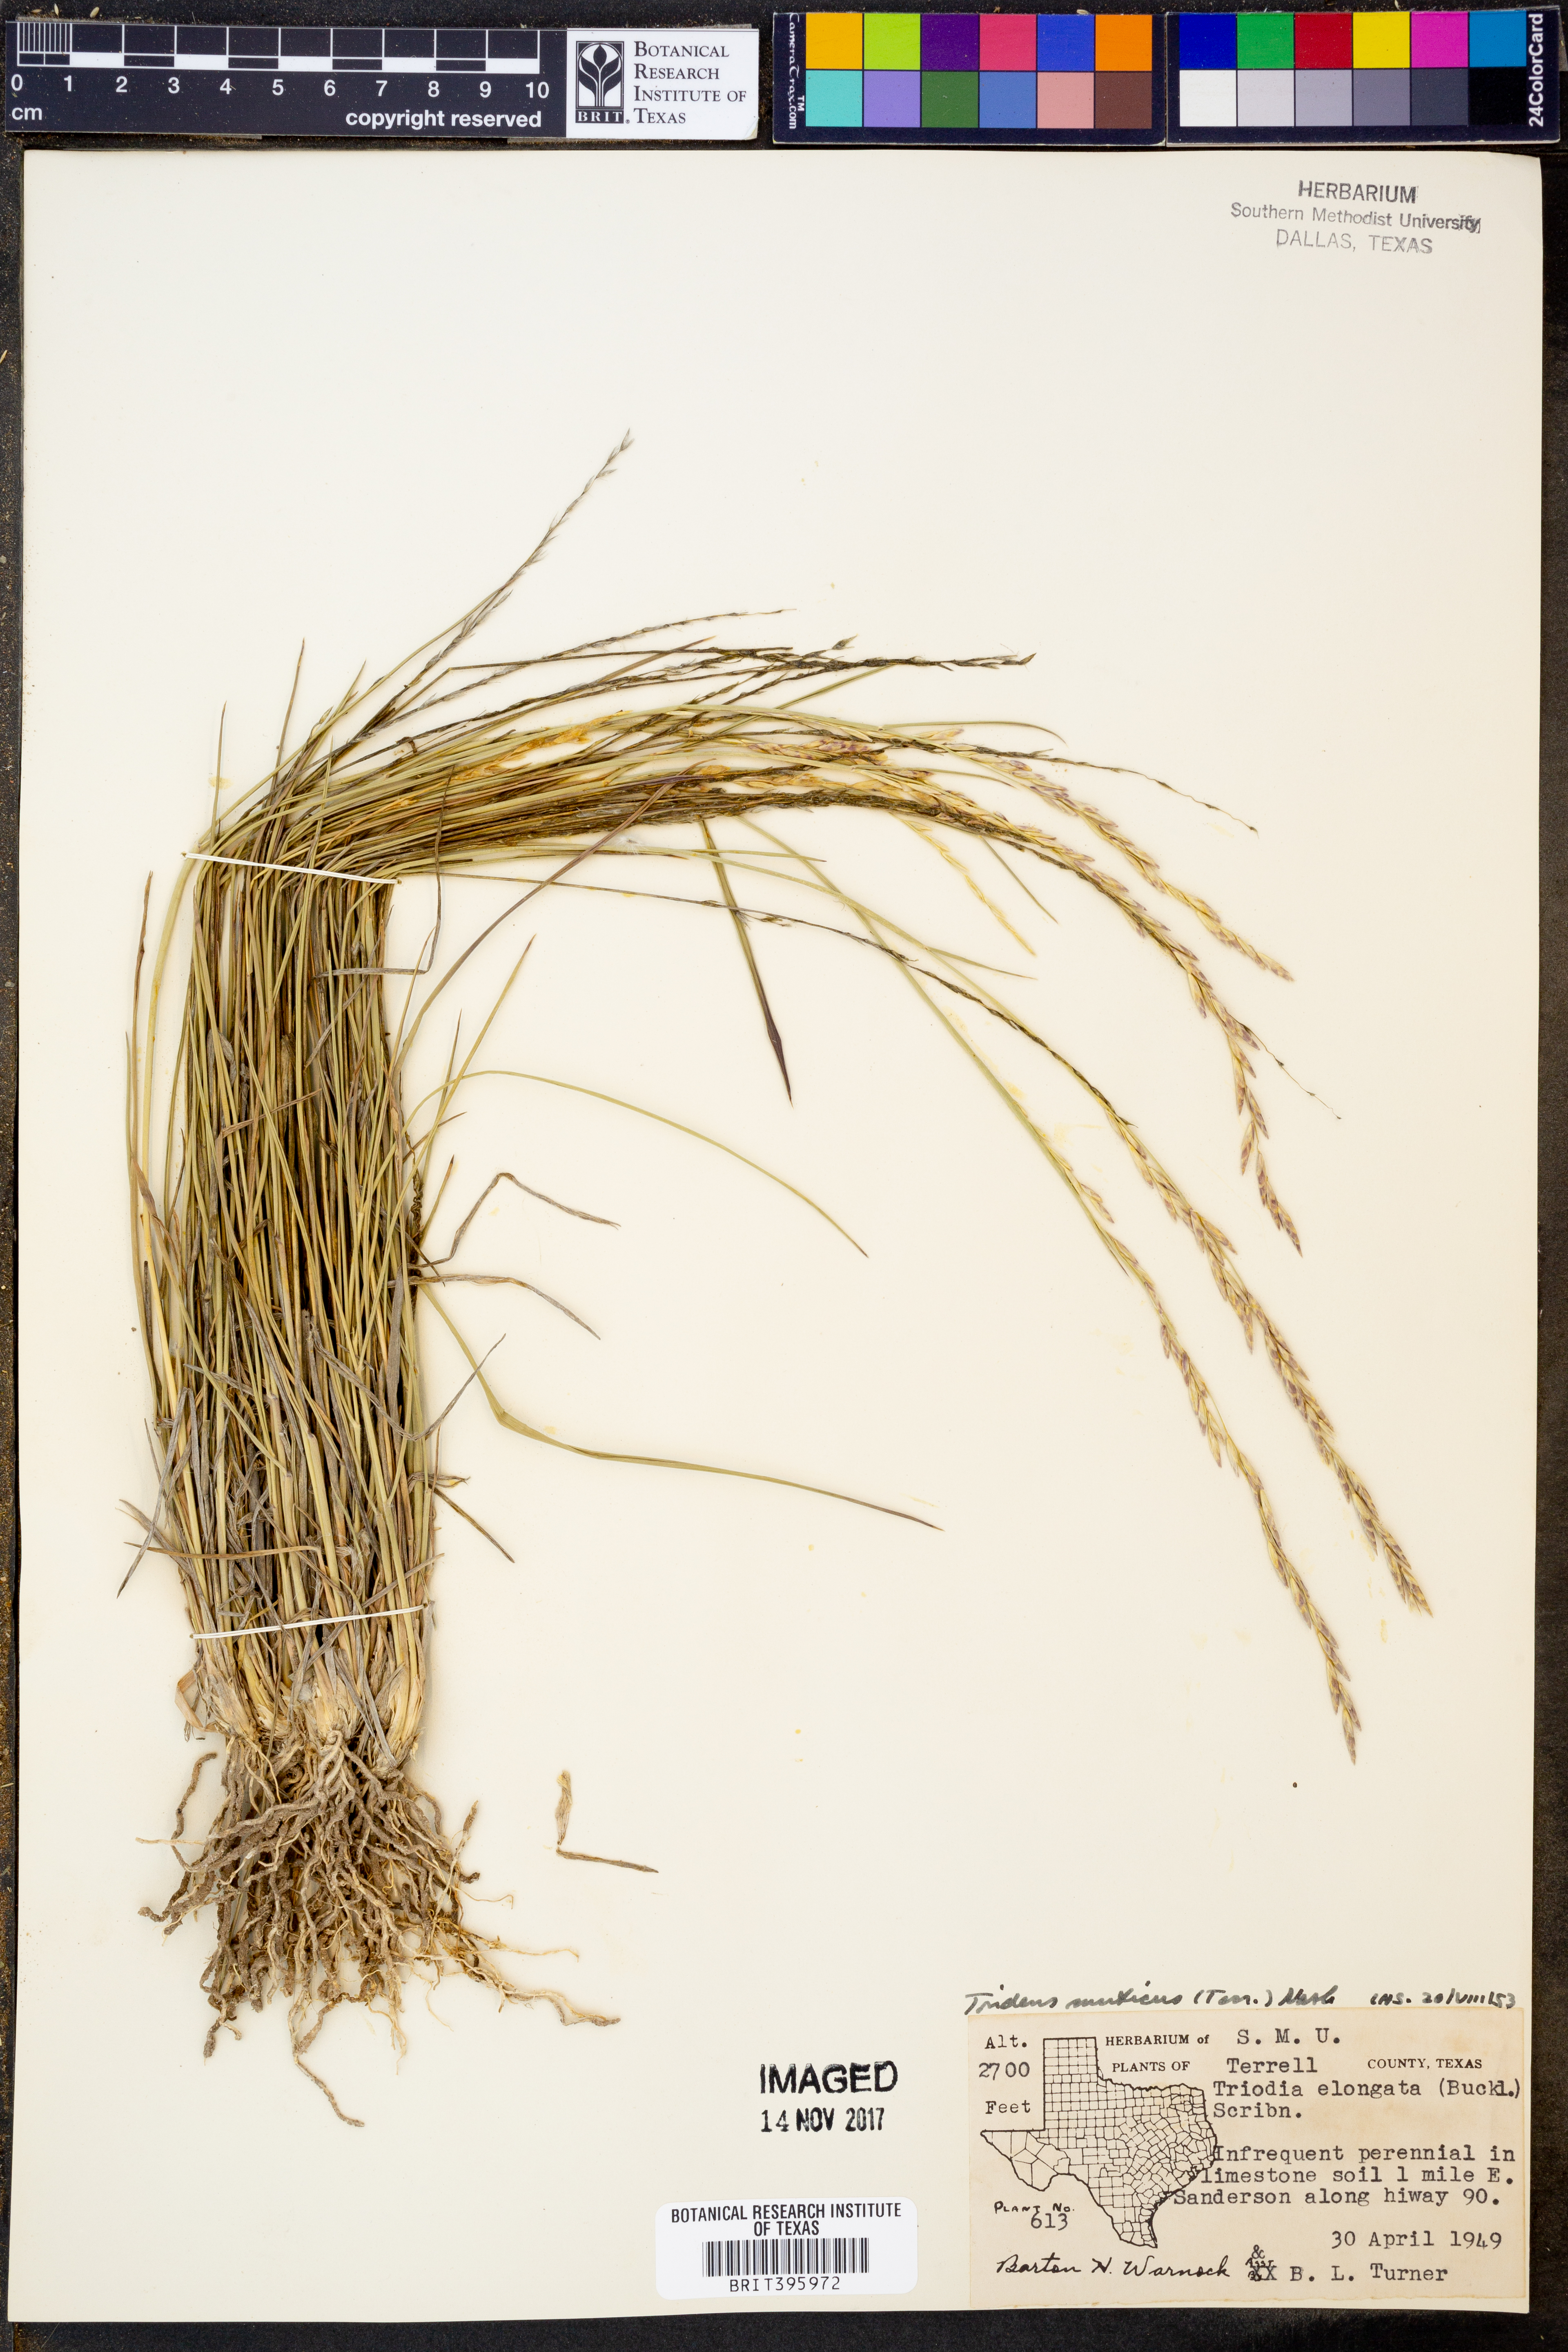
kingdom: Plantae
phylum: Tracheophyta
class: Liliopsida
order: Poales
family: Poaceae
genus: Tridentopsis
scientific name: Tridentopsis mutica
